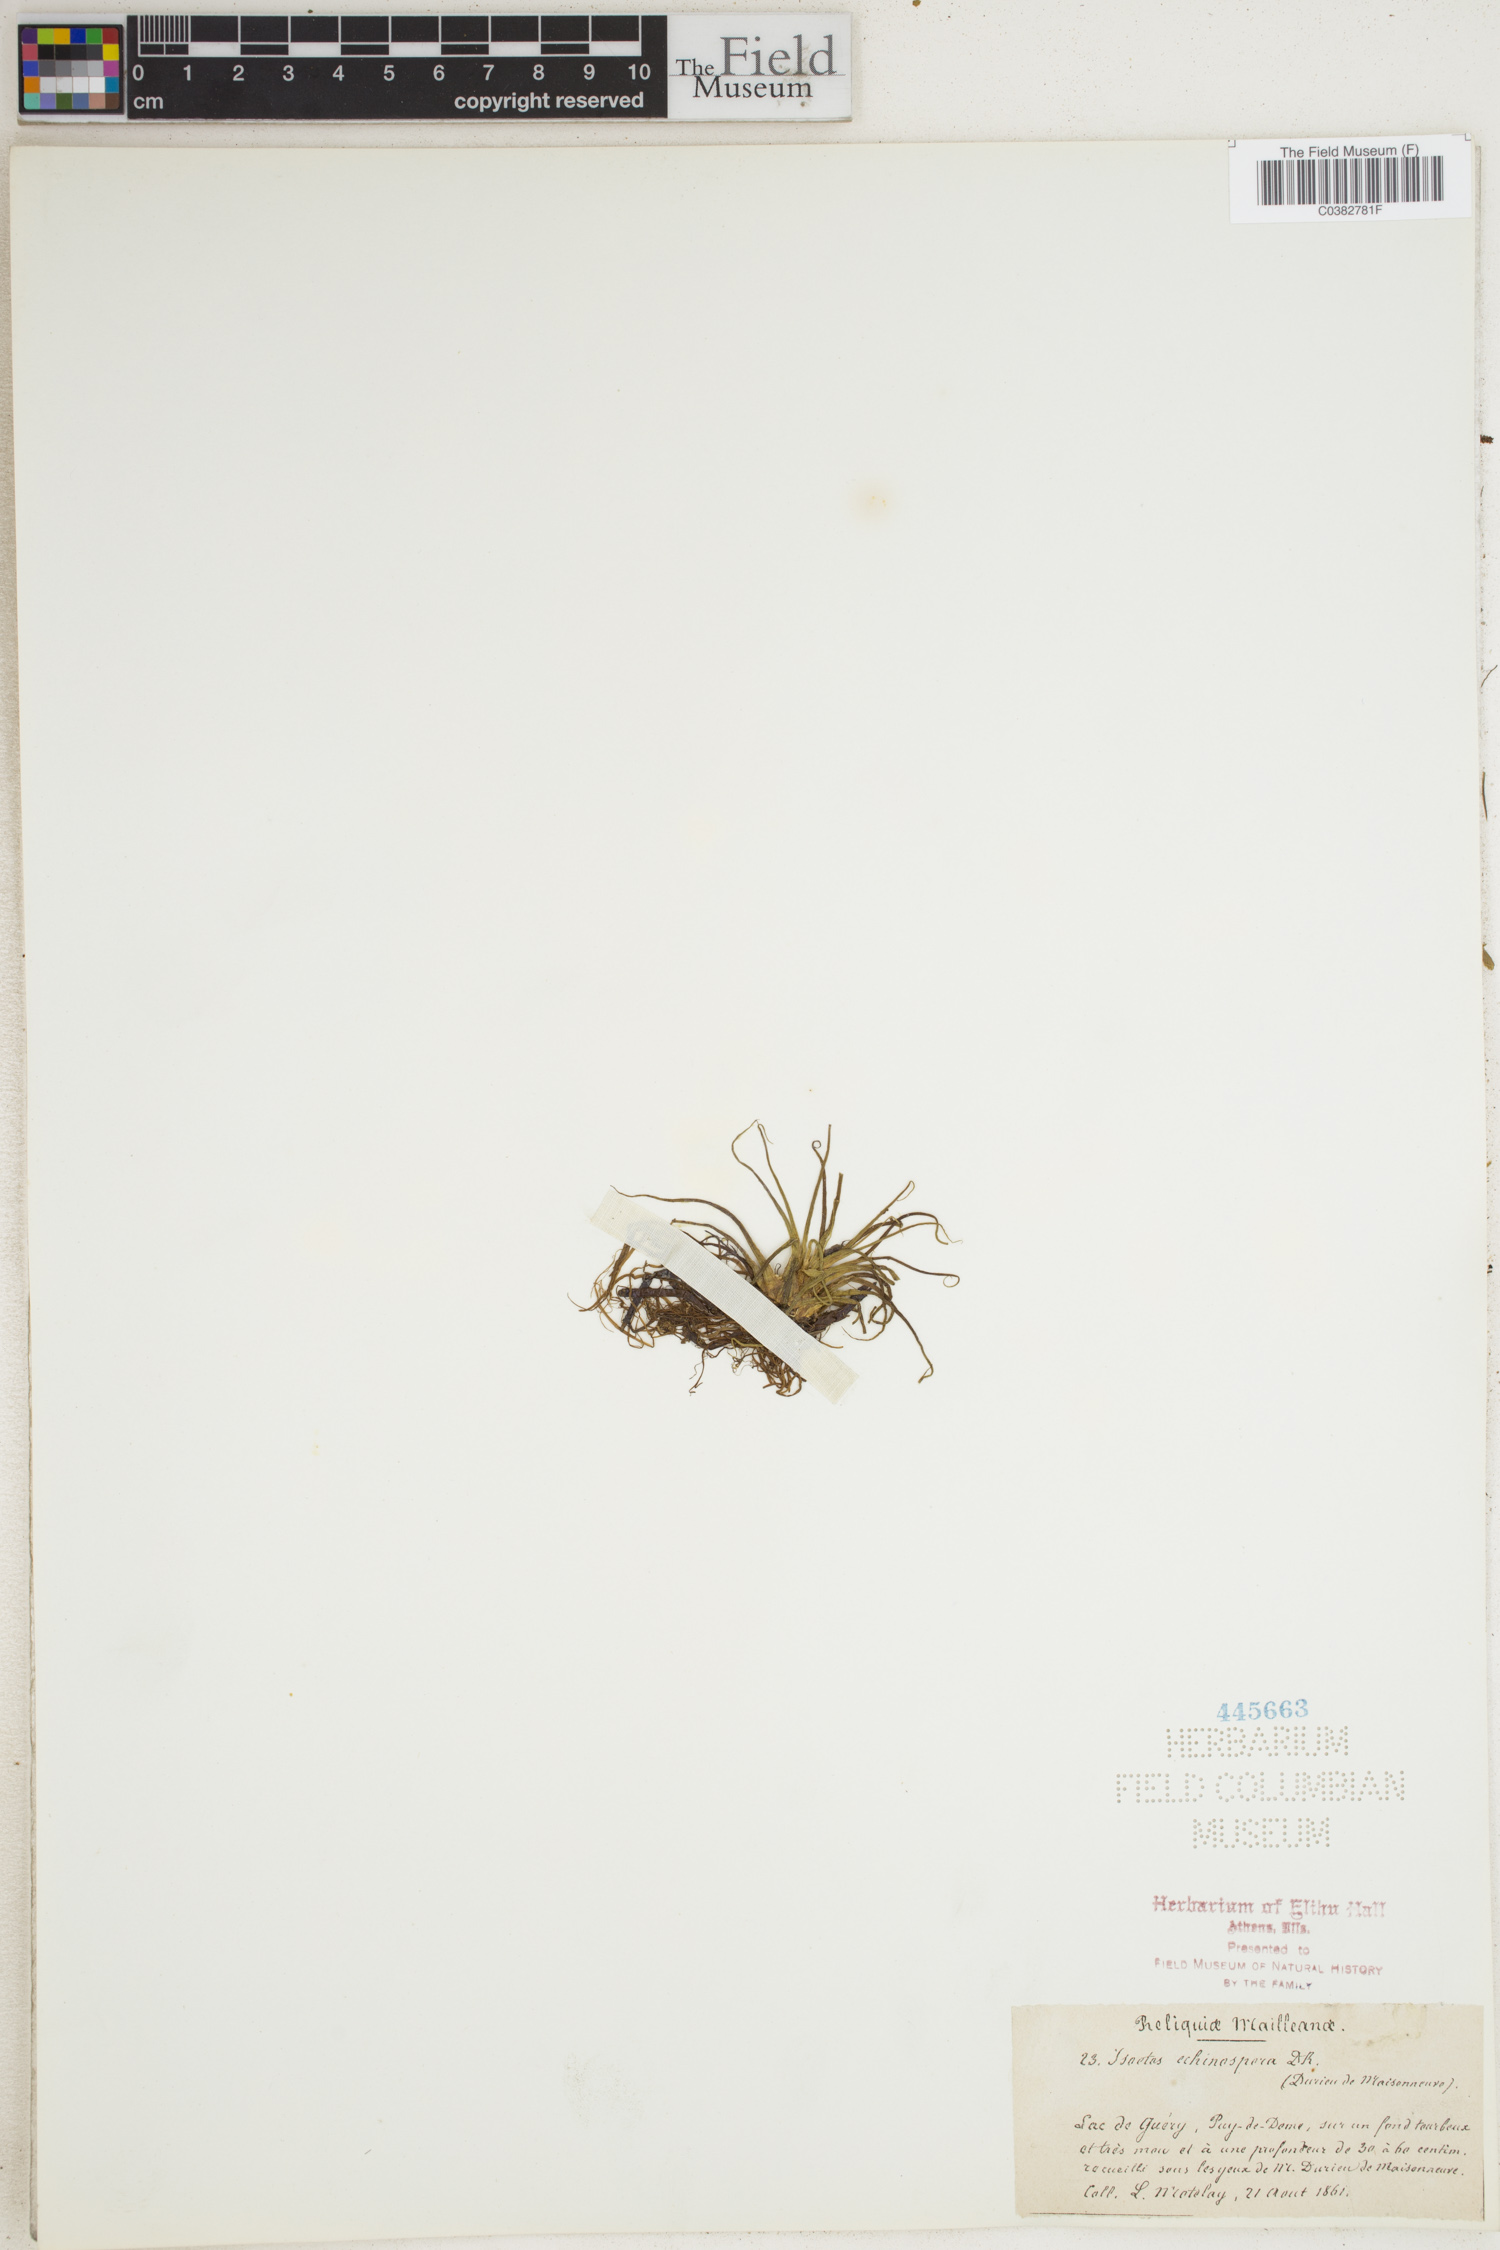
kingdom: Plantae
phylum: Tracheophyta
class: Lycopodiopsida
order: Isoetales
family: Isoetaceae
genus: Isoetes
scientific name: Isoetes echinospora
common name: Spring quillwort
